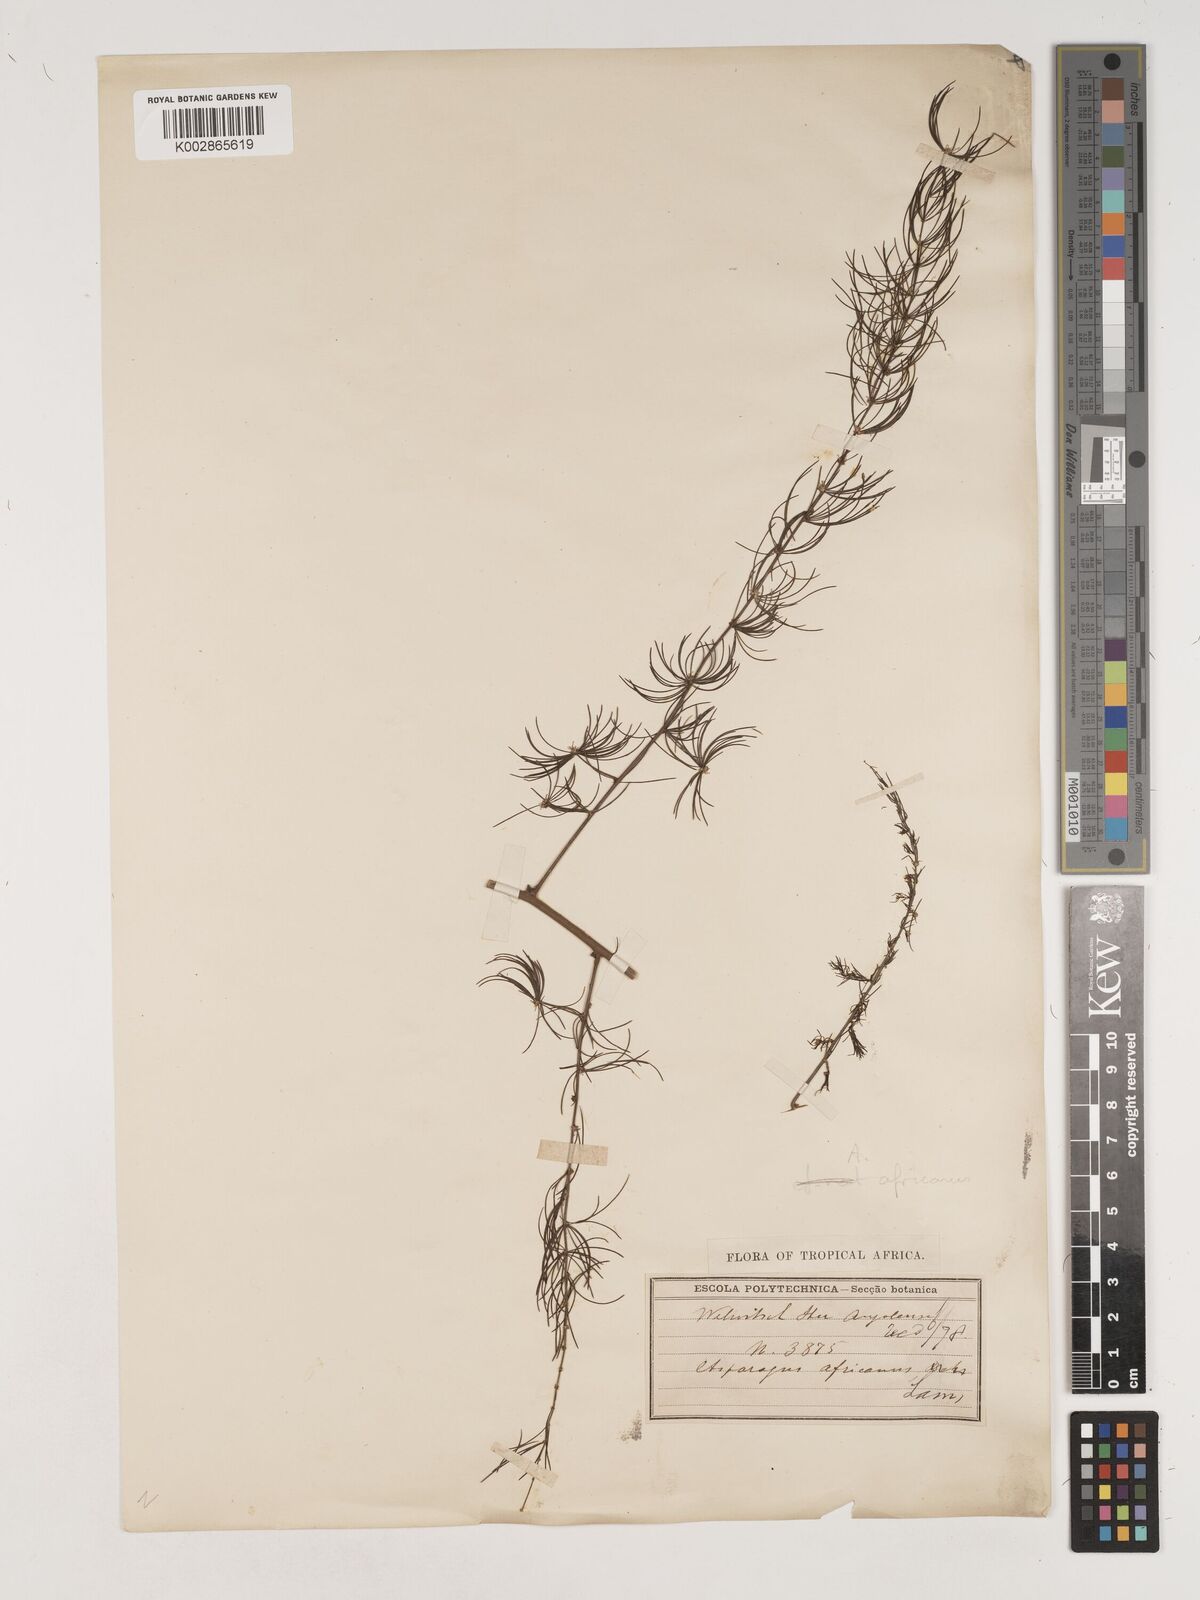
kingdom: Plantae
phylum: Tracheophyta
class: Liliopsida
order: Asparagales
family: Asparagaceae
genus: Asparagus
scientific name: Asparagus africanus
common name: Asparagus-fern
